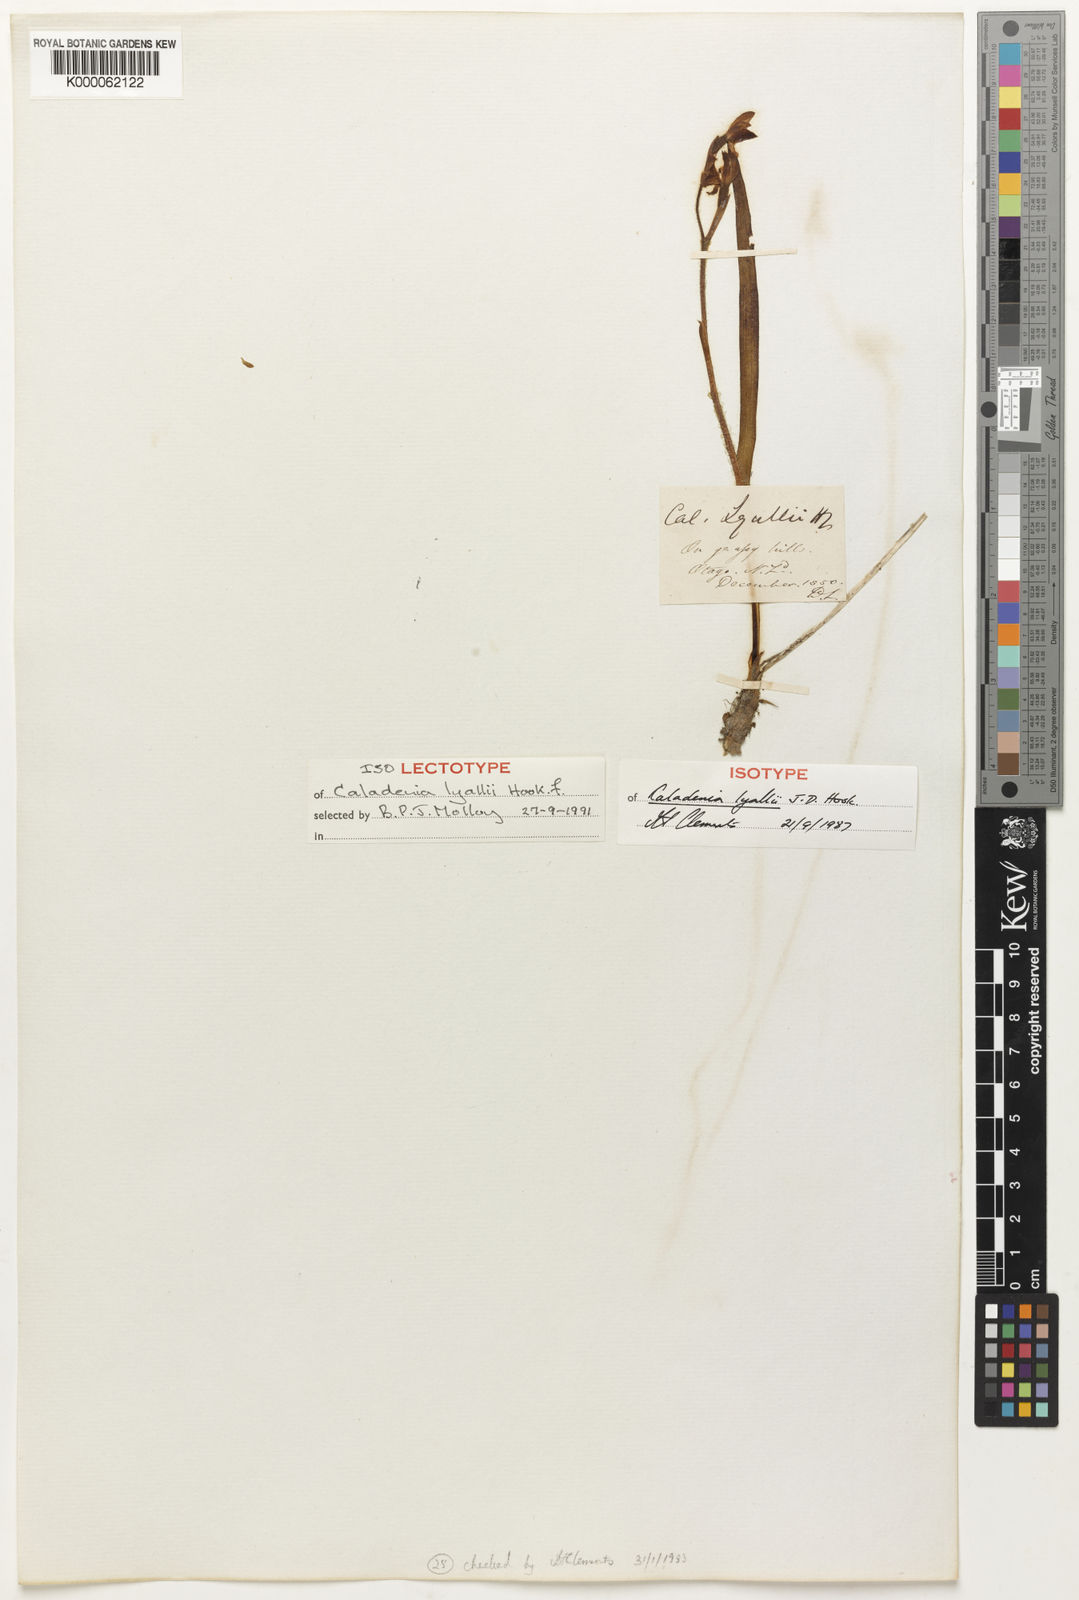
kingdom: Plantae
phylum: Tracheophyta
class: Liliopsida
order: Asparagales
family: Orchidaceae
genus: Caladenia
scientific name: Caladenia lyallii
